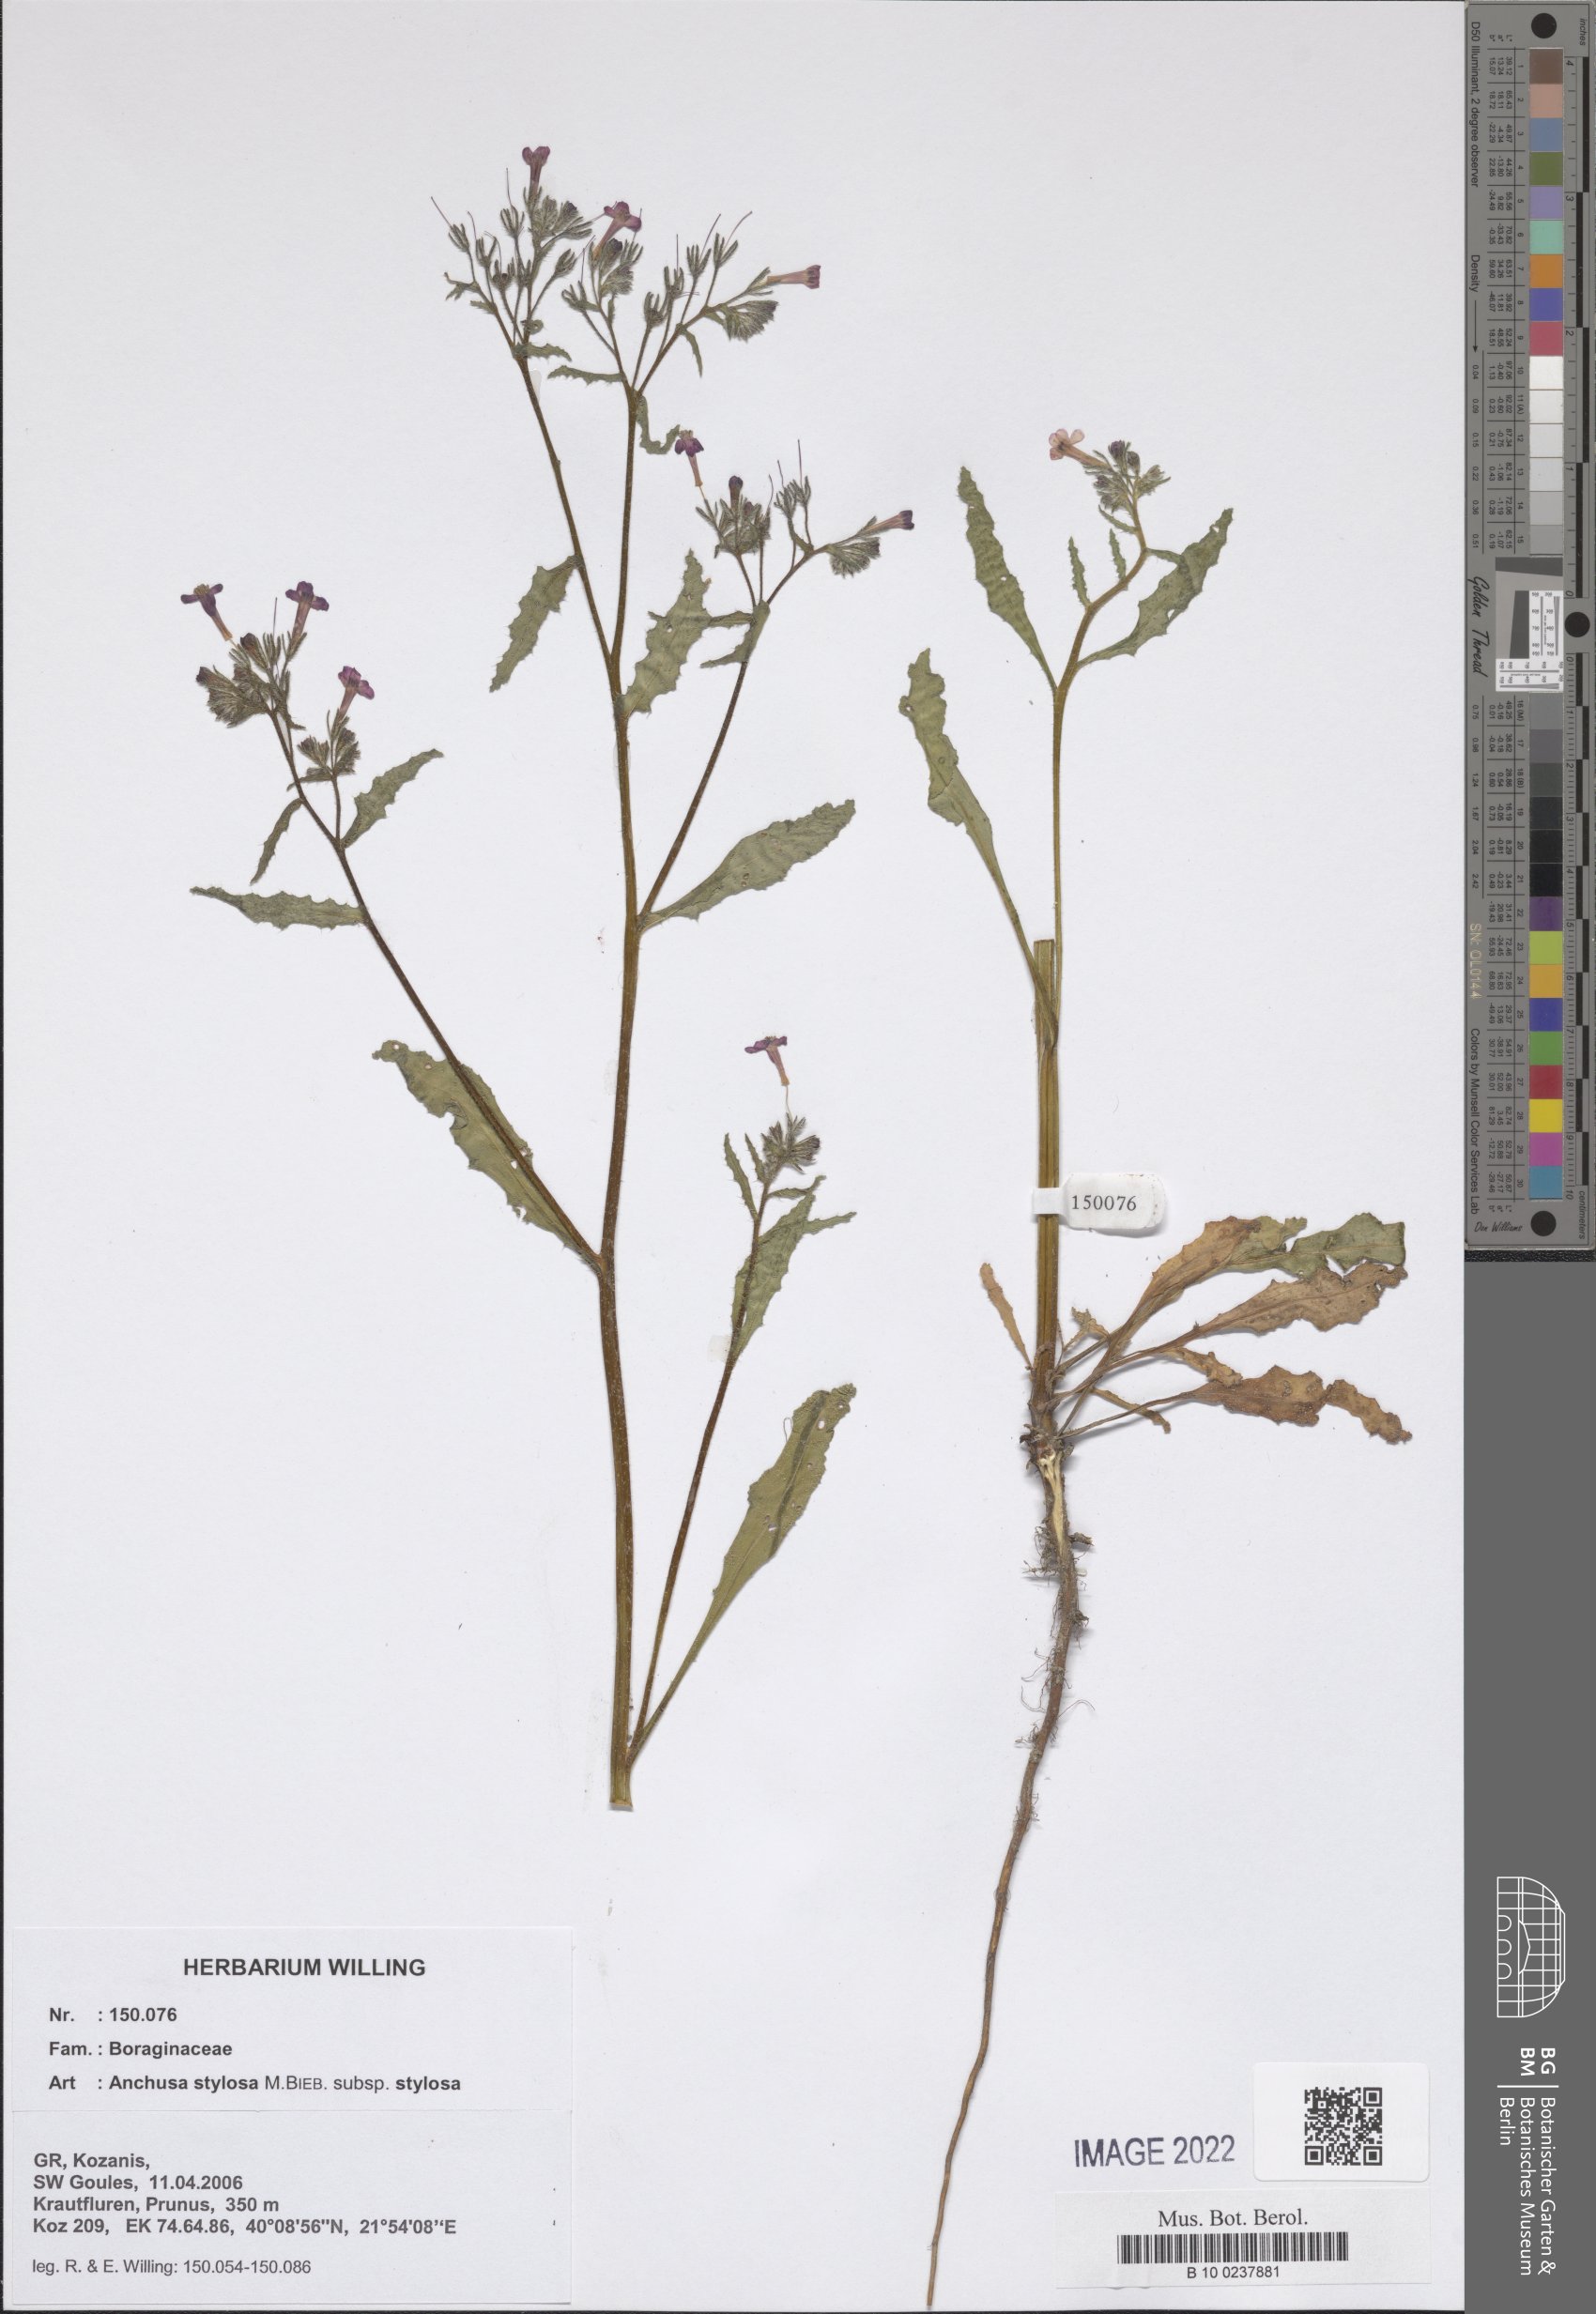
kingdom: Plantae
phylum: Tracheophyta
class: Magnoliopsida
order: Boraginales
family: Boraginaceae
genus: Anchusa
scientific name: Anchusa stylosa
